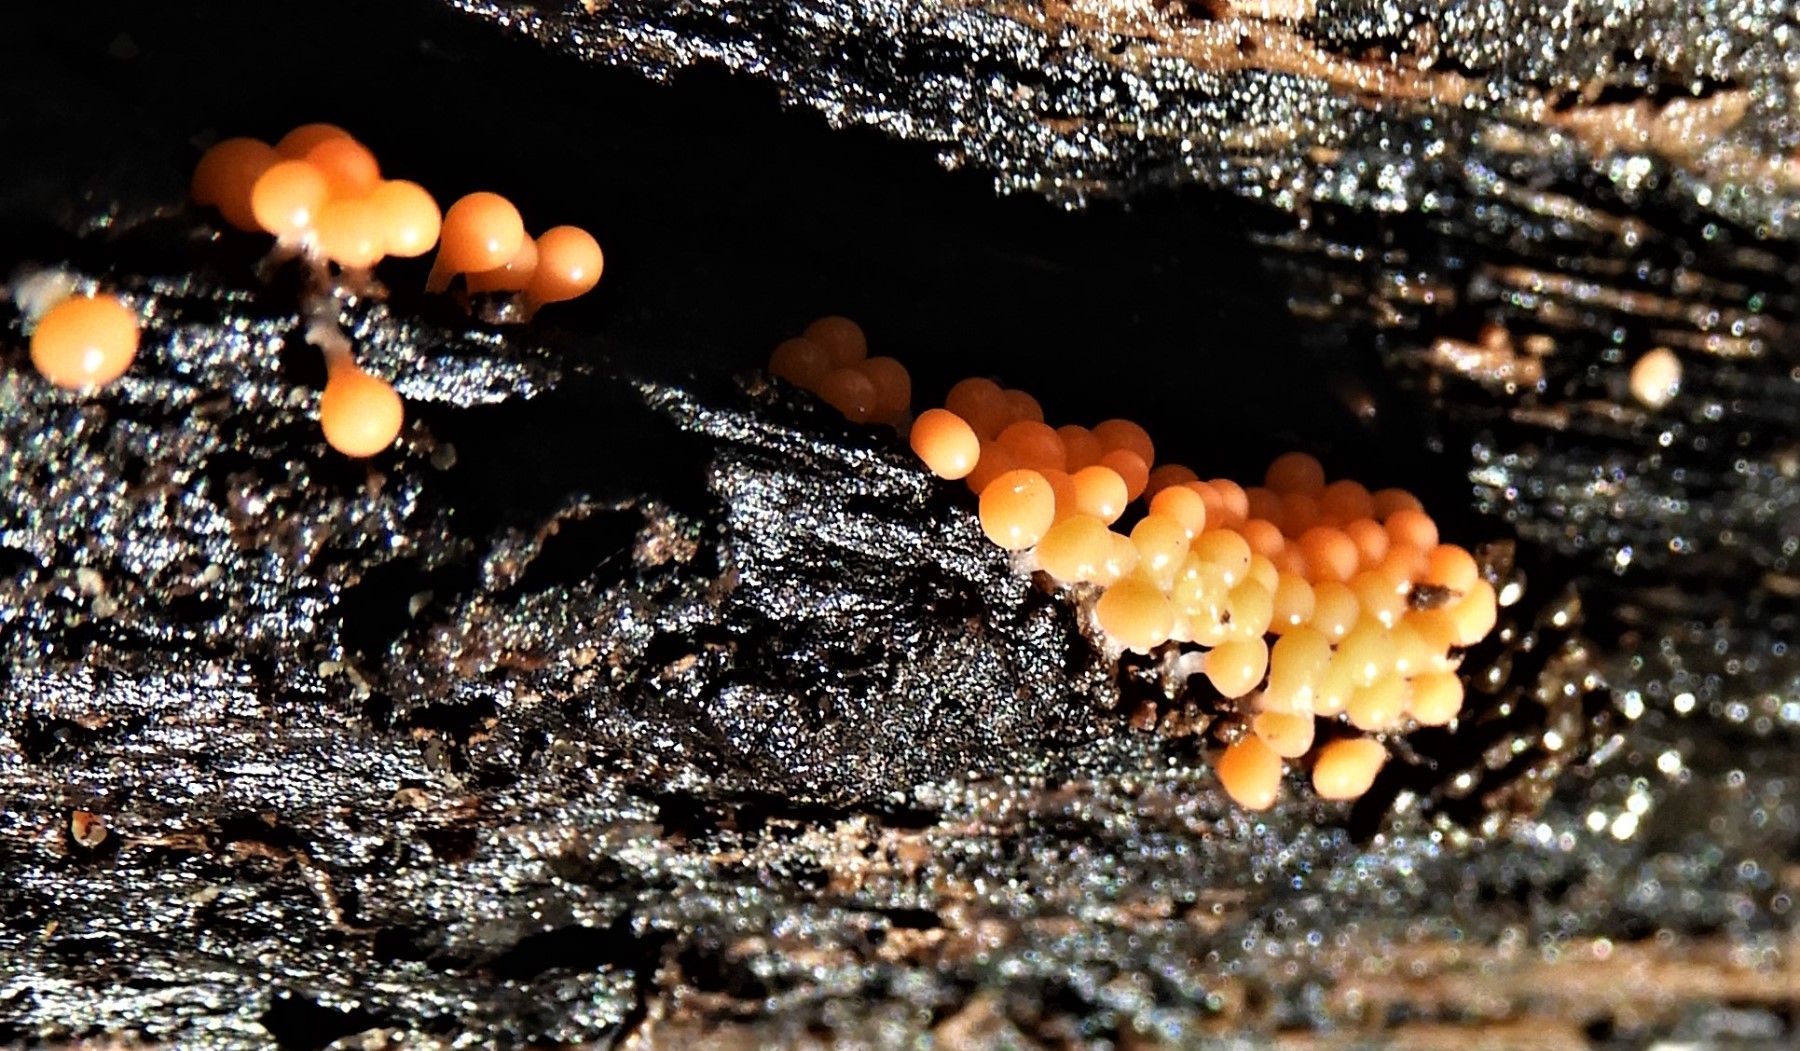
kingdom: Protozoa
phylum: Mycetozoa
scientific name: Mycetozoa
